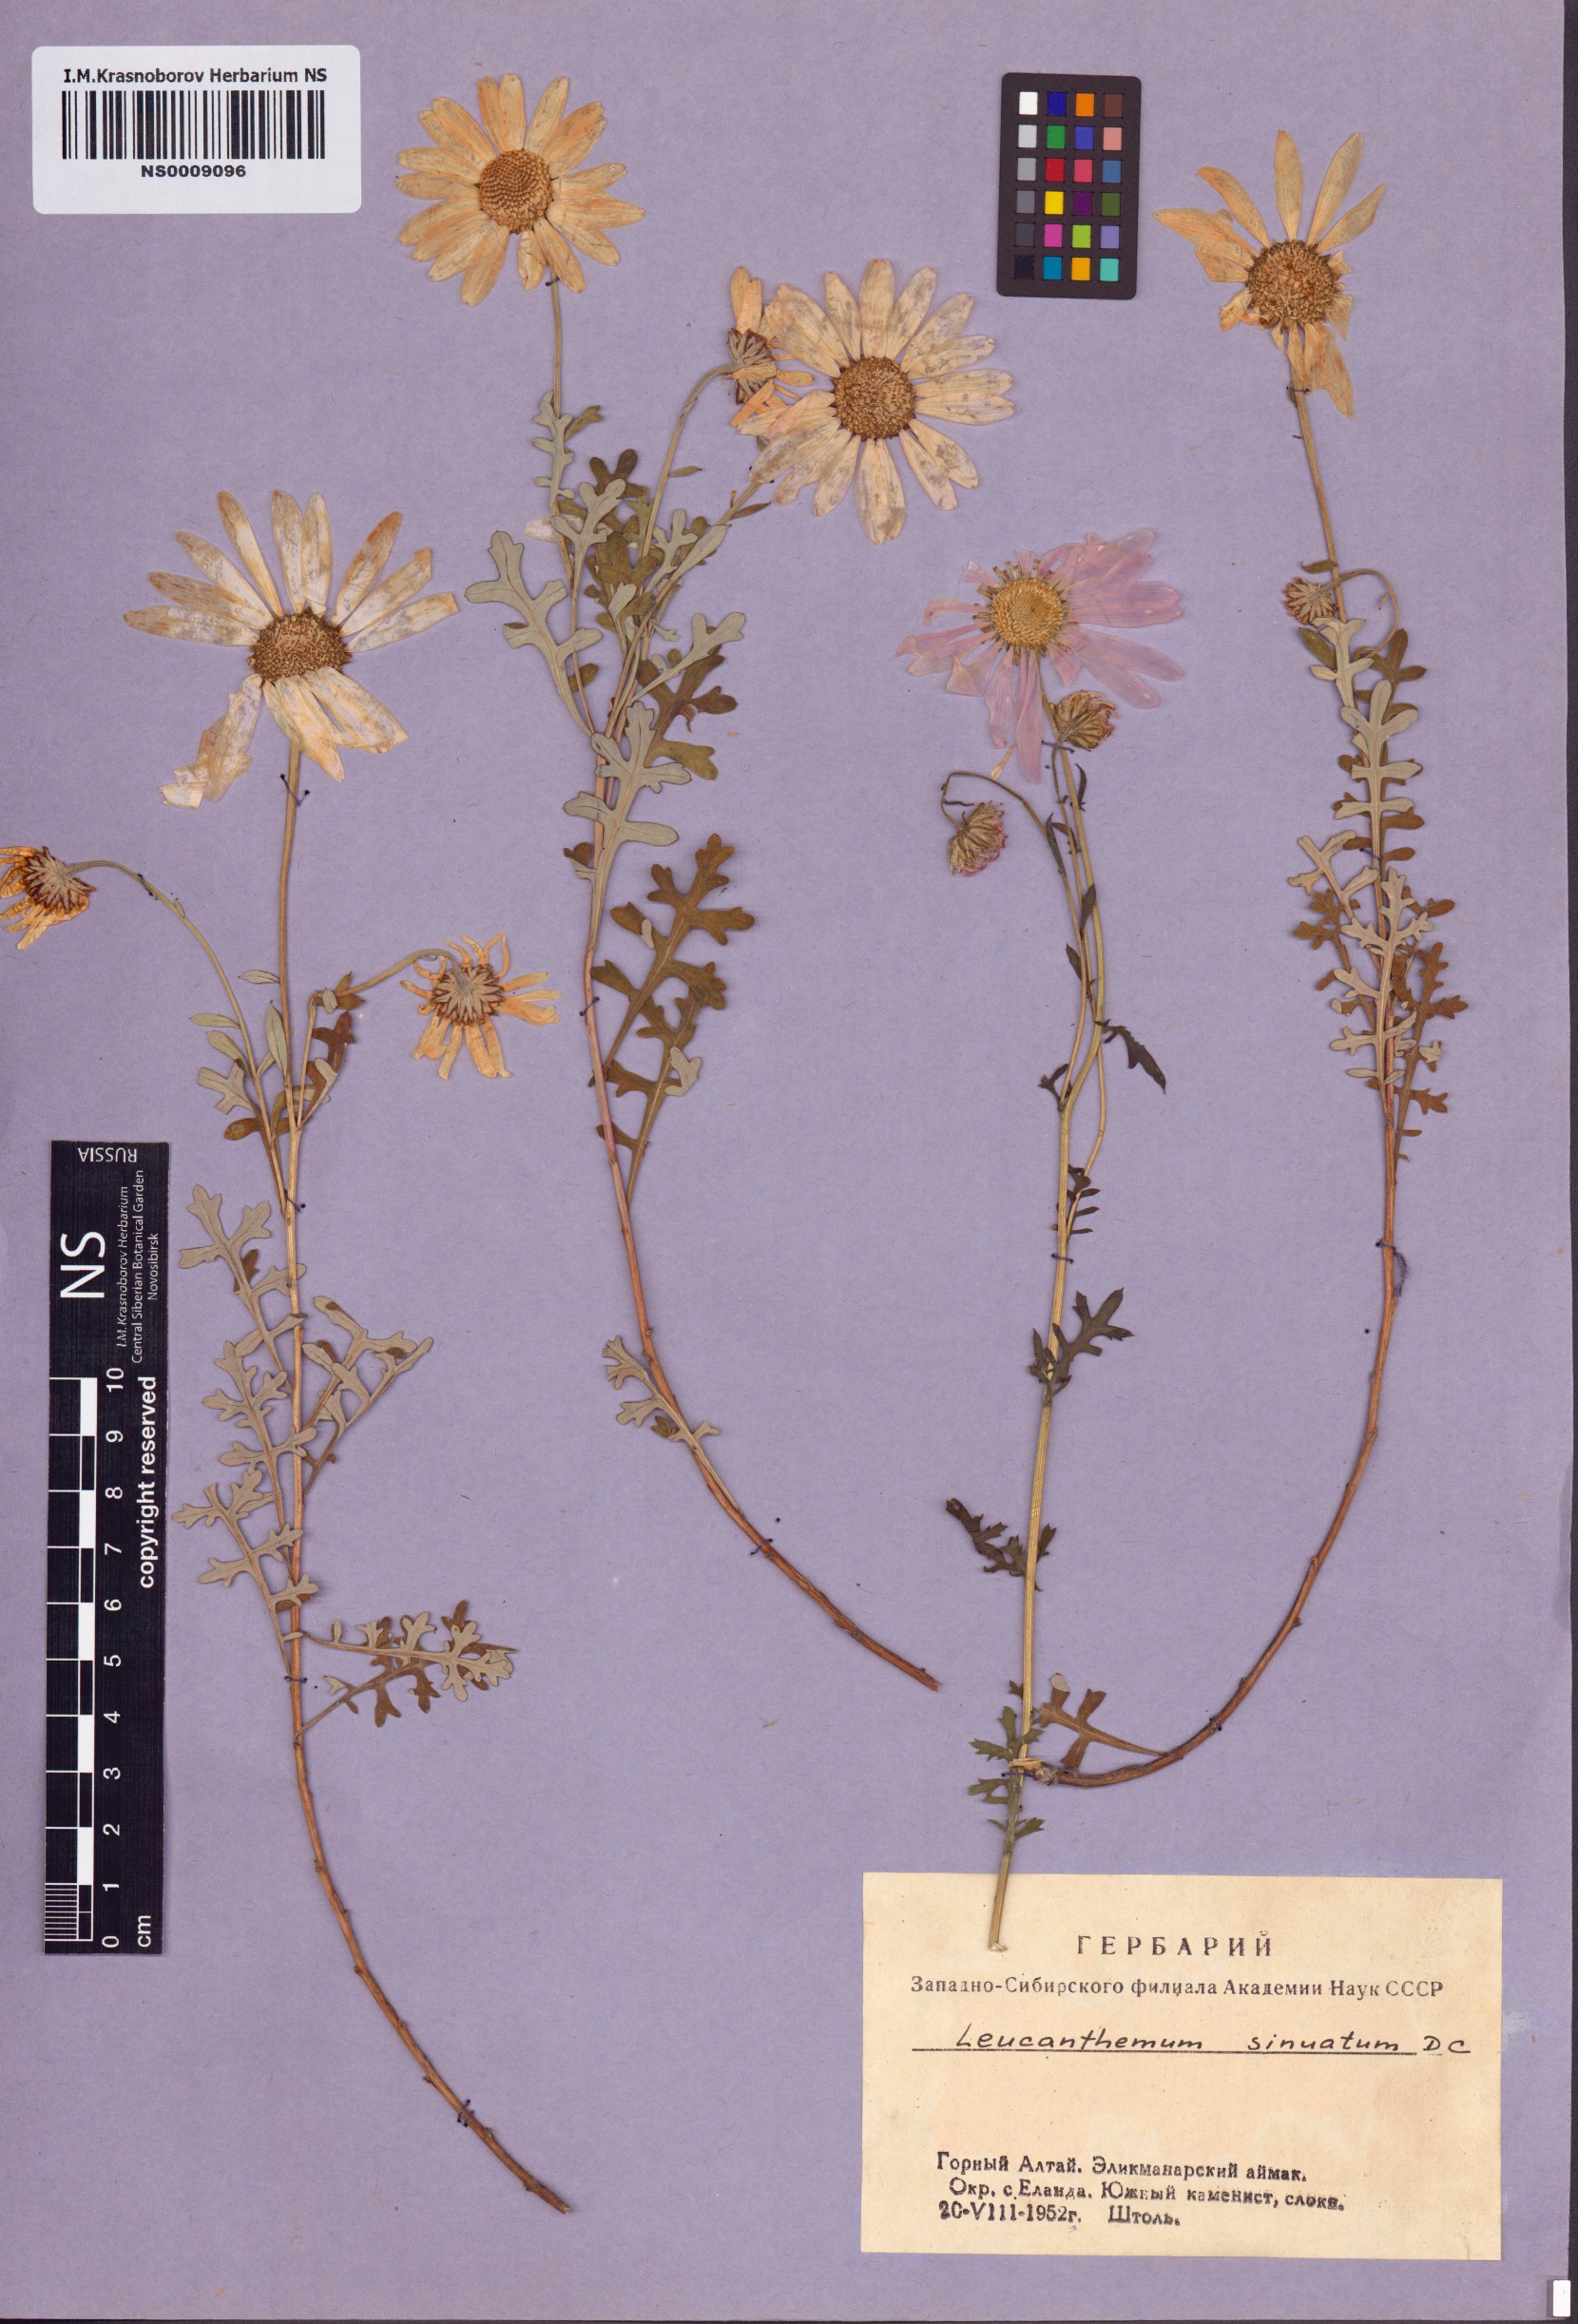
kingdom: Plantae
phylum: Tracheophyta
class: Magnoliopsida
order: Asterales
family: Asteraceae
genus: Chrysanthemum
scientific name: Chrysanthemum sinuatum
